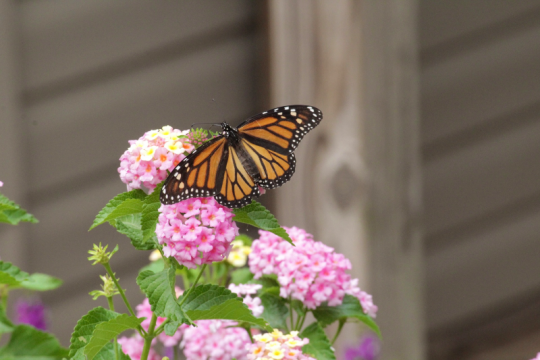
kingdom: Animalia
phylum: Arthropoda
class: Insecta
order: Lepidoptera
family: Nymphalidae
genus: Danaus
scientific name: Danaus plexippus
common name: Monarch
